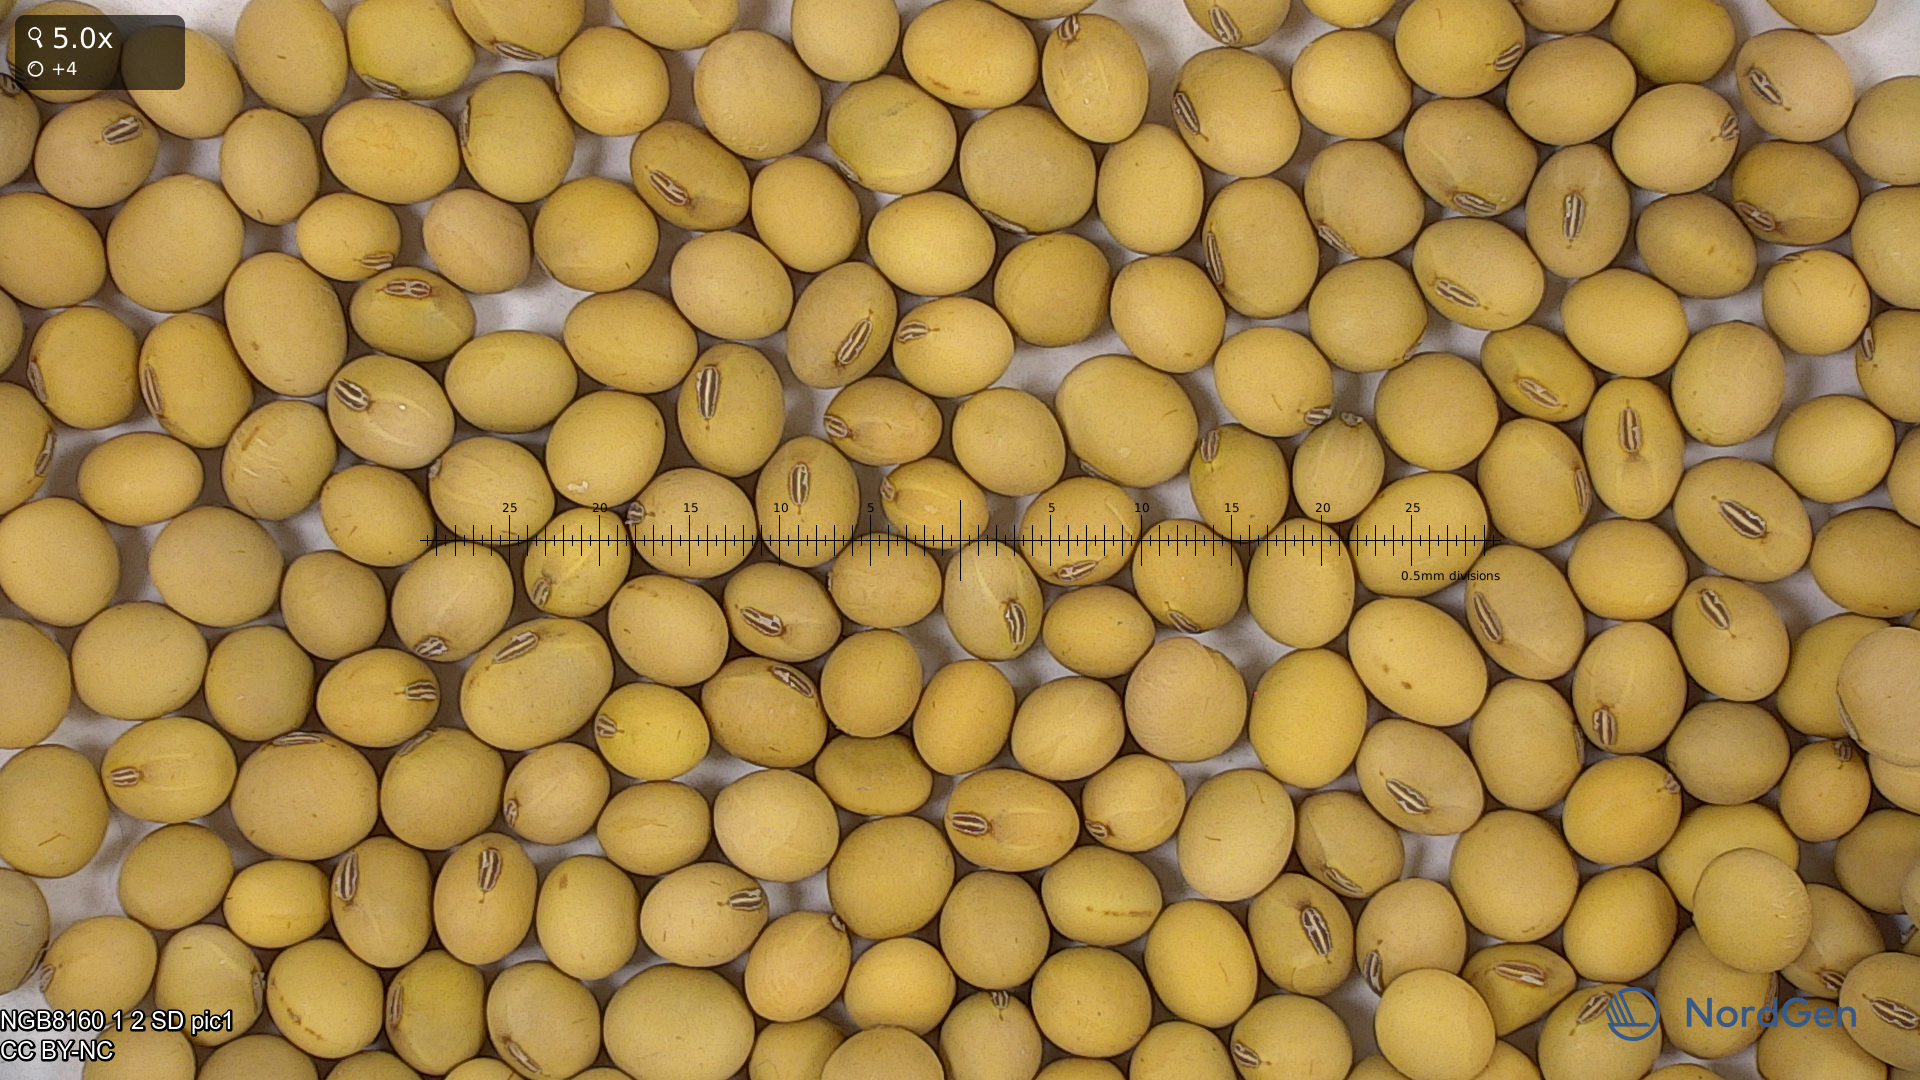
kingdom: Plantae
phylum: Tracheophyta
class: Magnoliopsida
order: Fabales
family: Fabaceae
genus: Glycine
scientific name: Glycine max
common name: Soya-bean
